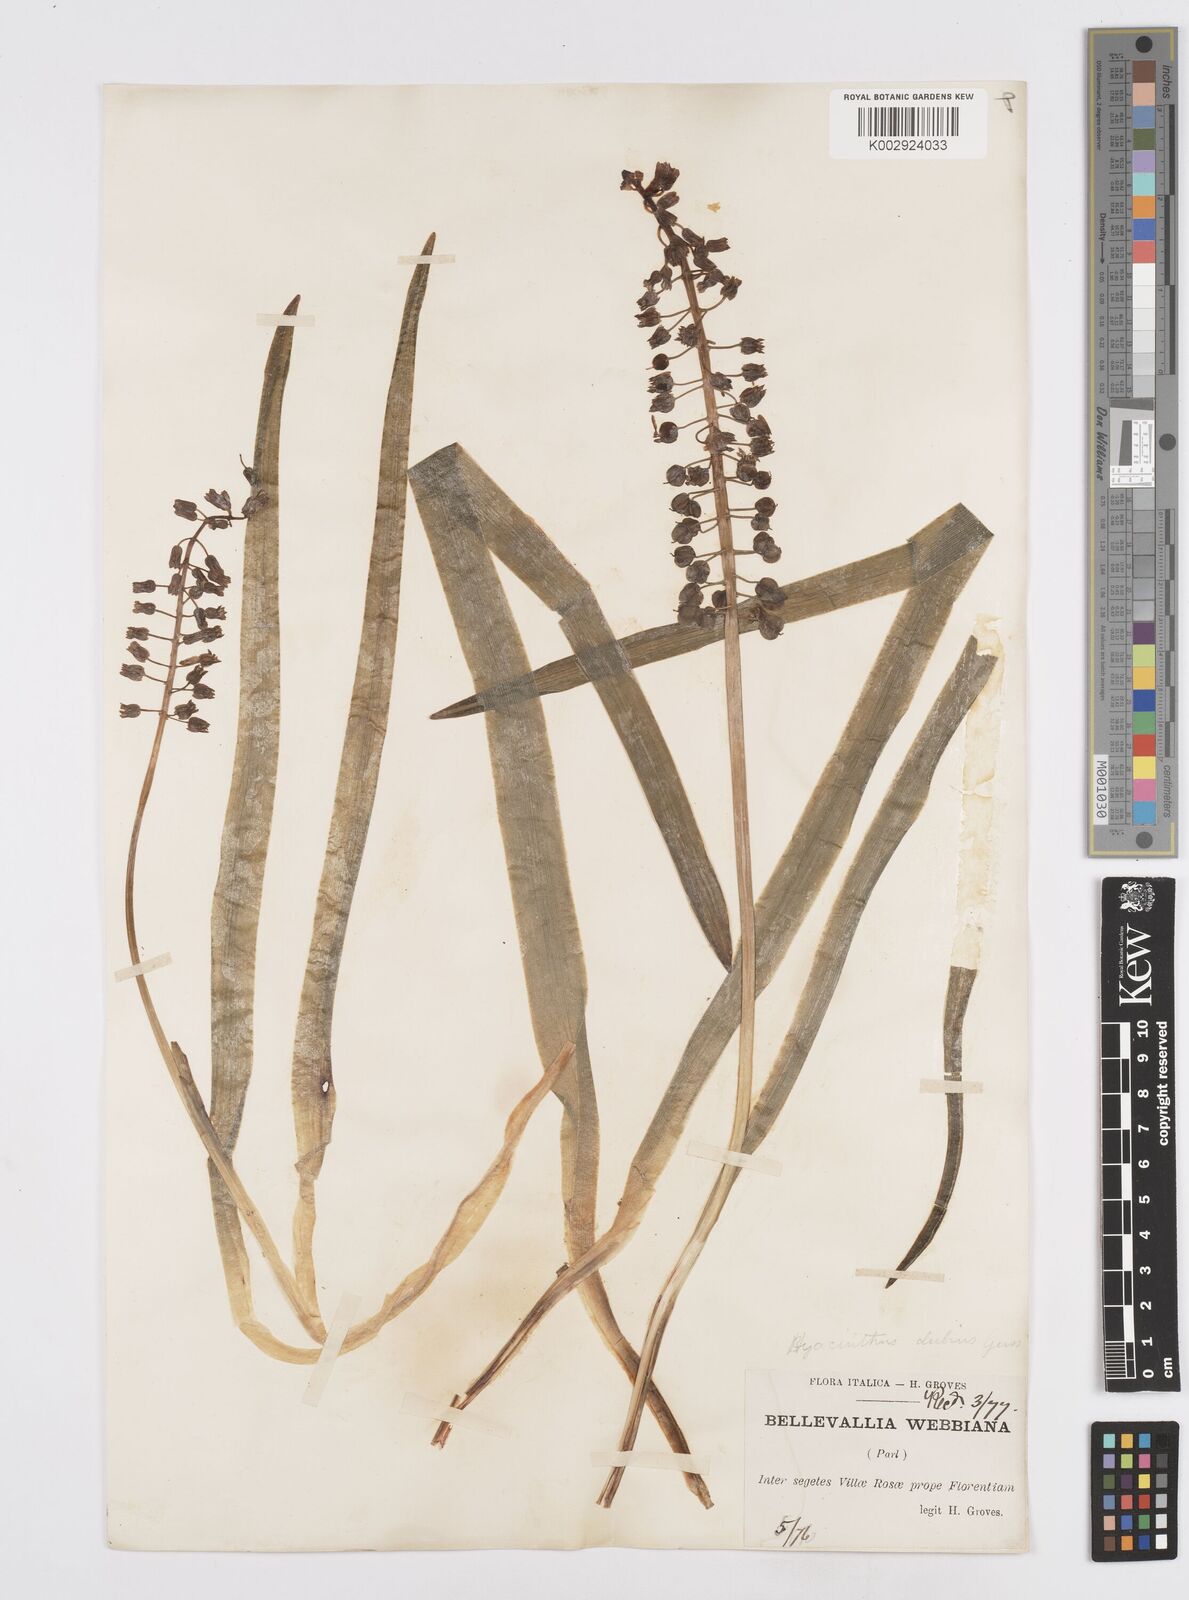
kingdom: Plantae
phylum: Tracheophyta
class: Liliopsida
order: Asparagales
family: Asparagaceae
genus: Bellevalia
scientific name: Bellevalia dubia
